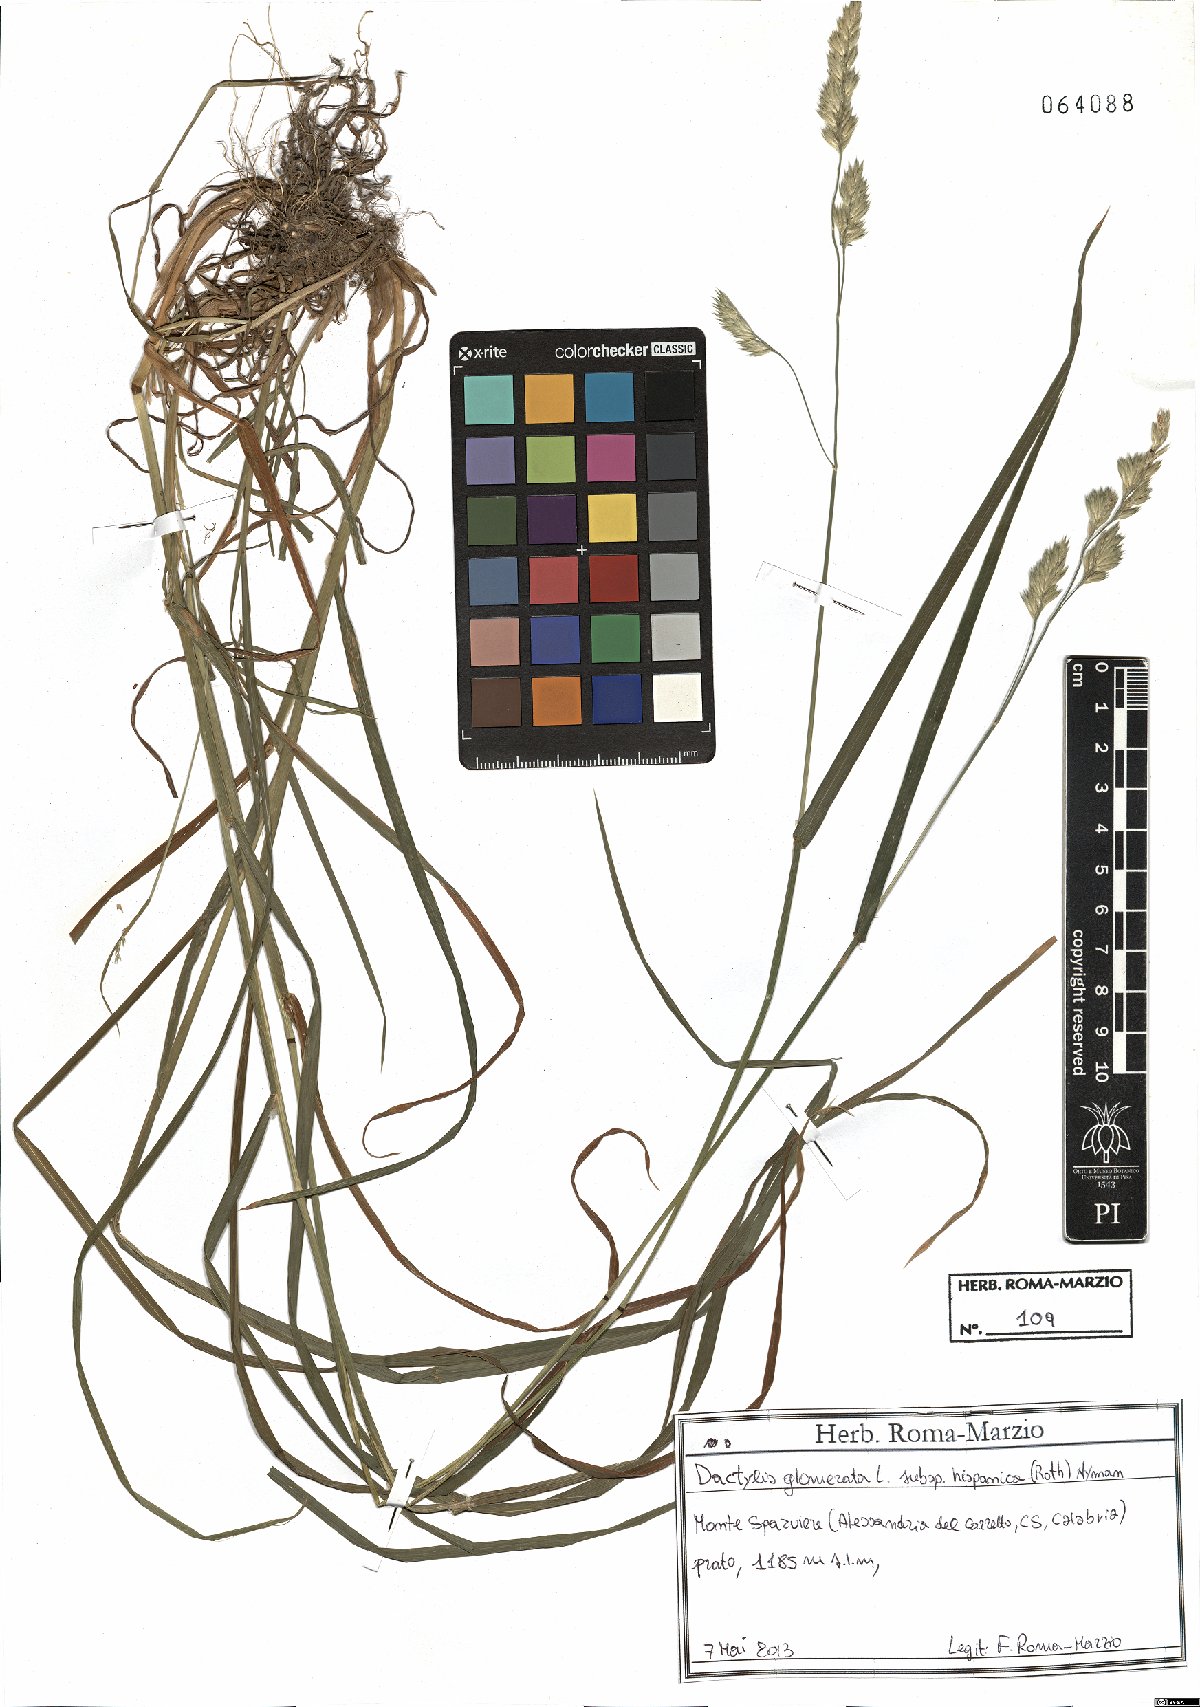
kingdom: Plantae
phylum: Tracheophyta
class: Liliopsida
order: Poales
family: Poaceae
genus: Dactylis
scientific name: Dactylis glomerata
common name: Orchardgrass
